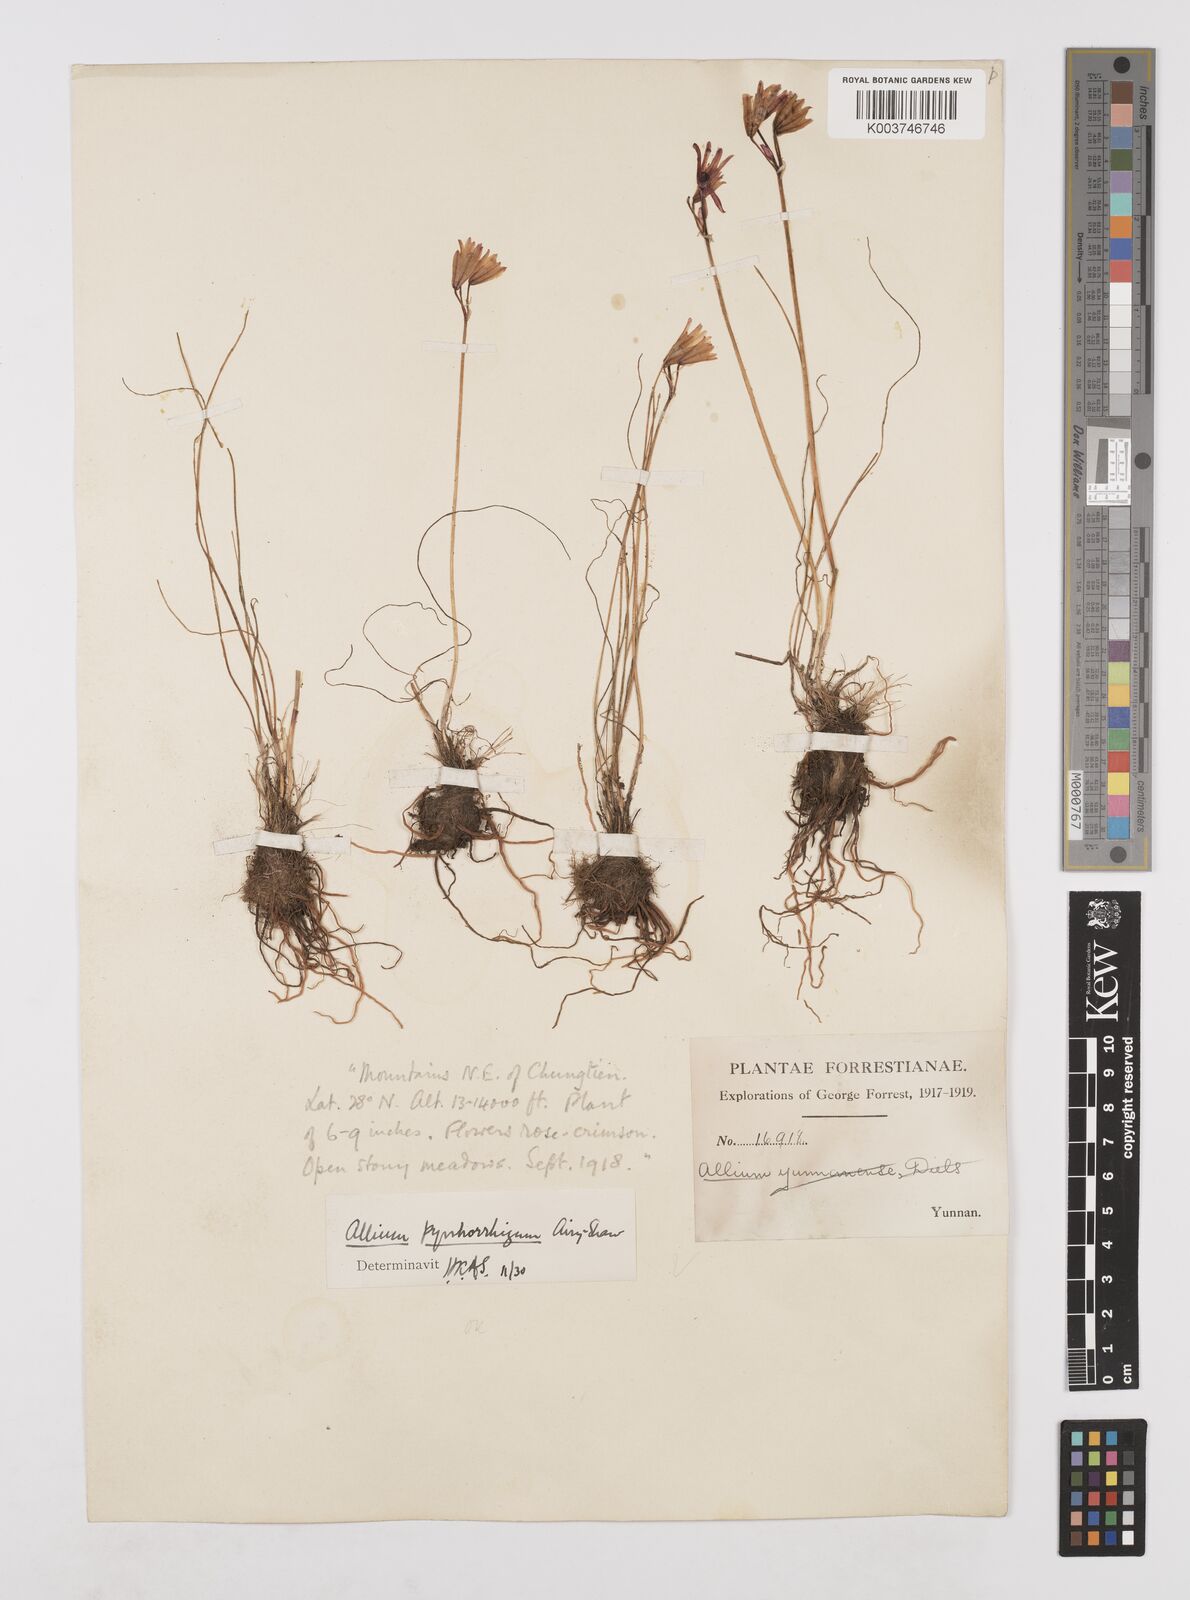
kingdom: Plantae
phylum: Tracheophyta
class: Liliopsida
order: Asparagales
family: Amaryllidaceae
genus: Allium
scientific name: Allium mairei
